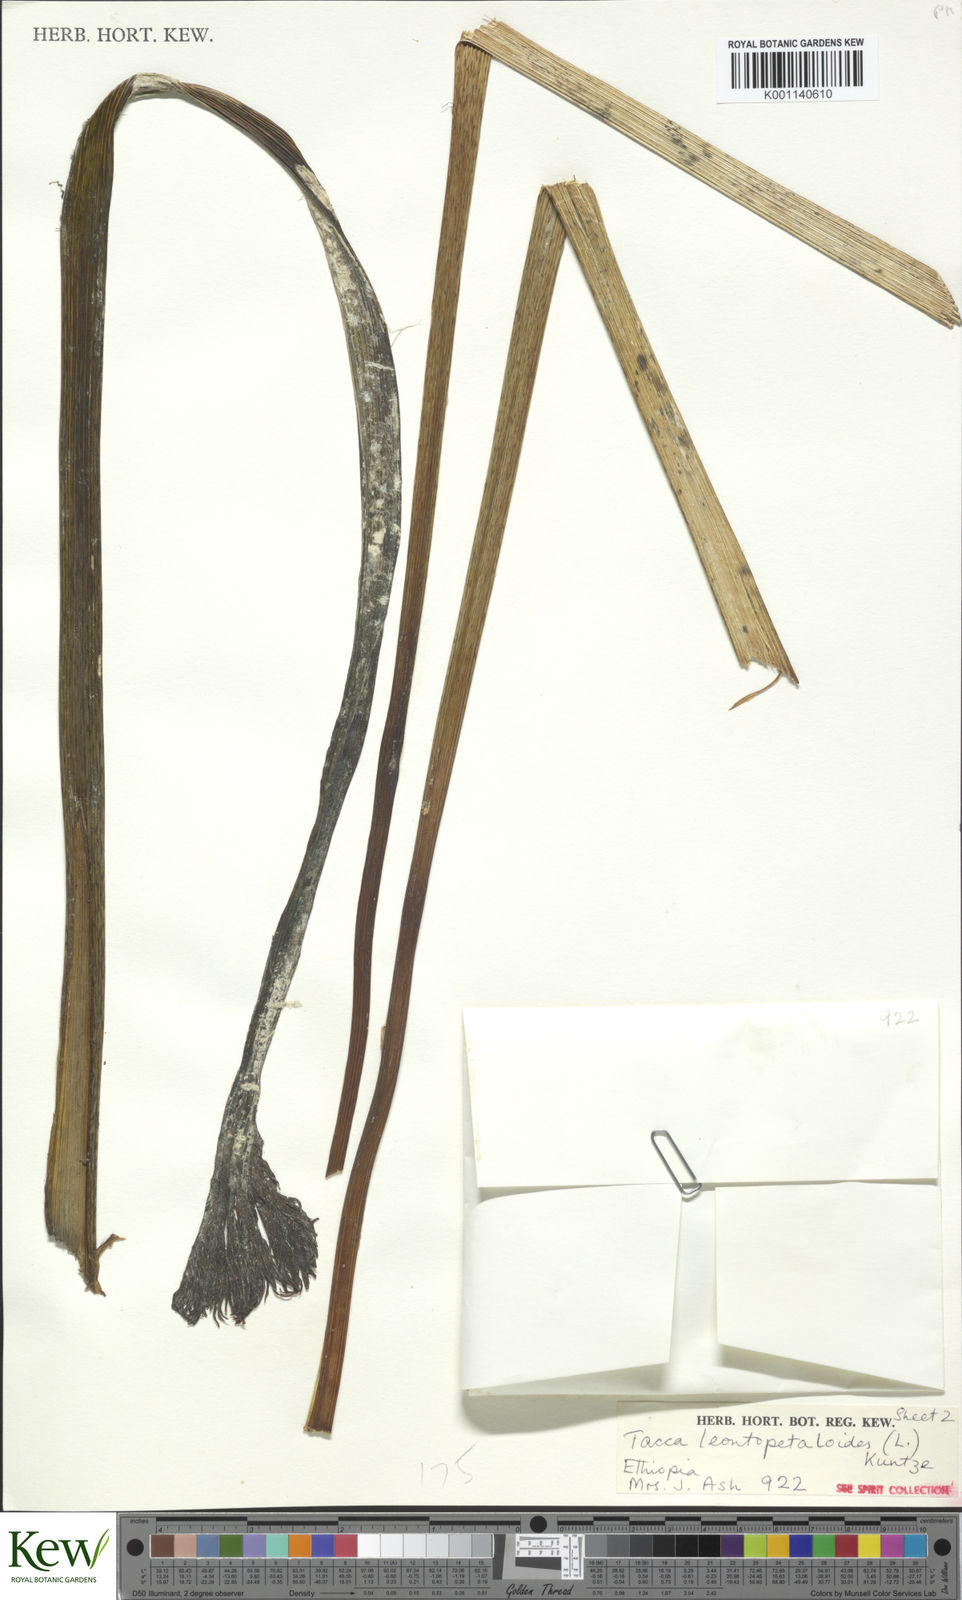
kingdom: Plantae
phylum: Tracheophyta
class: Liliopsida
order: Dioscoreales
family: Dioscoreaceae
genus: Tacca
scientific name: Tacca leontopetaloides
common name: Arrowroot
